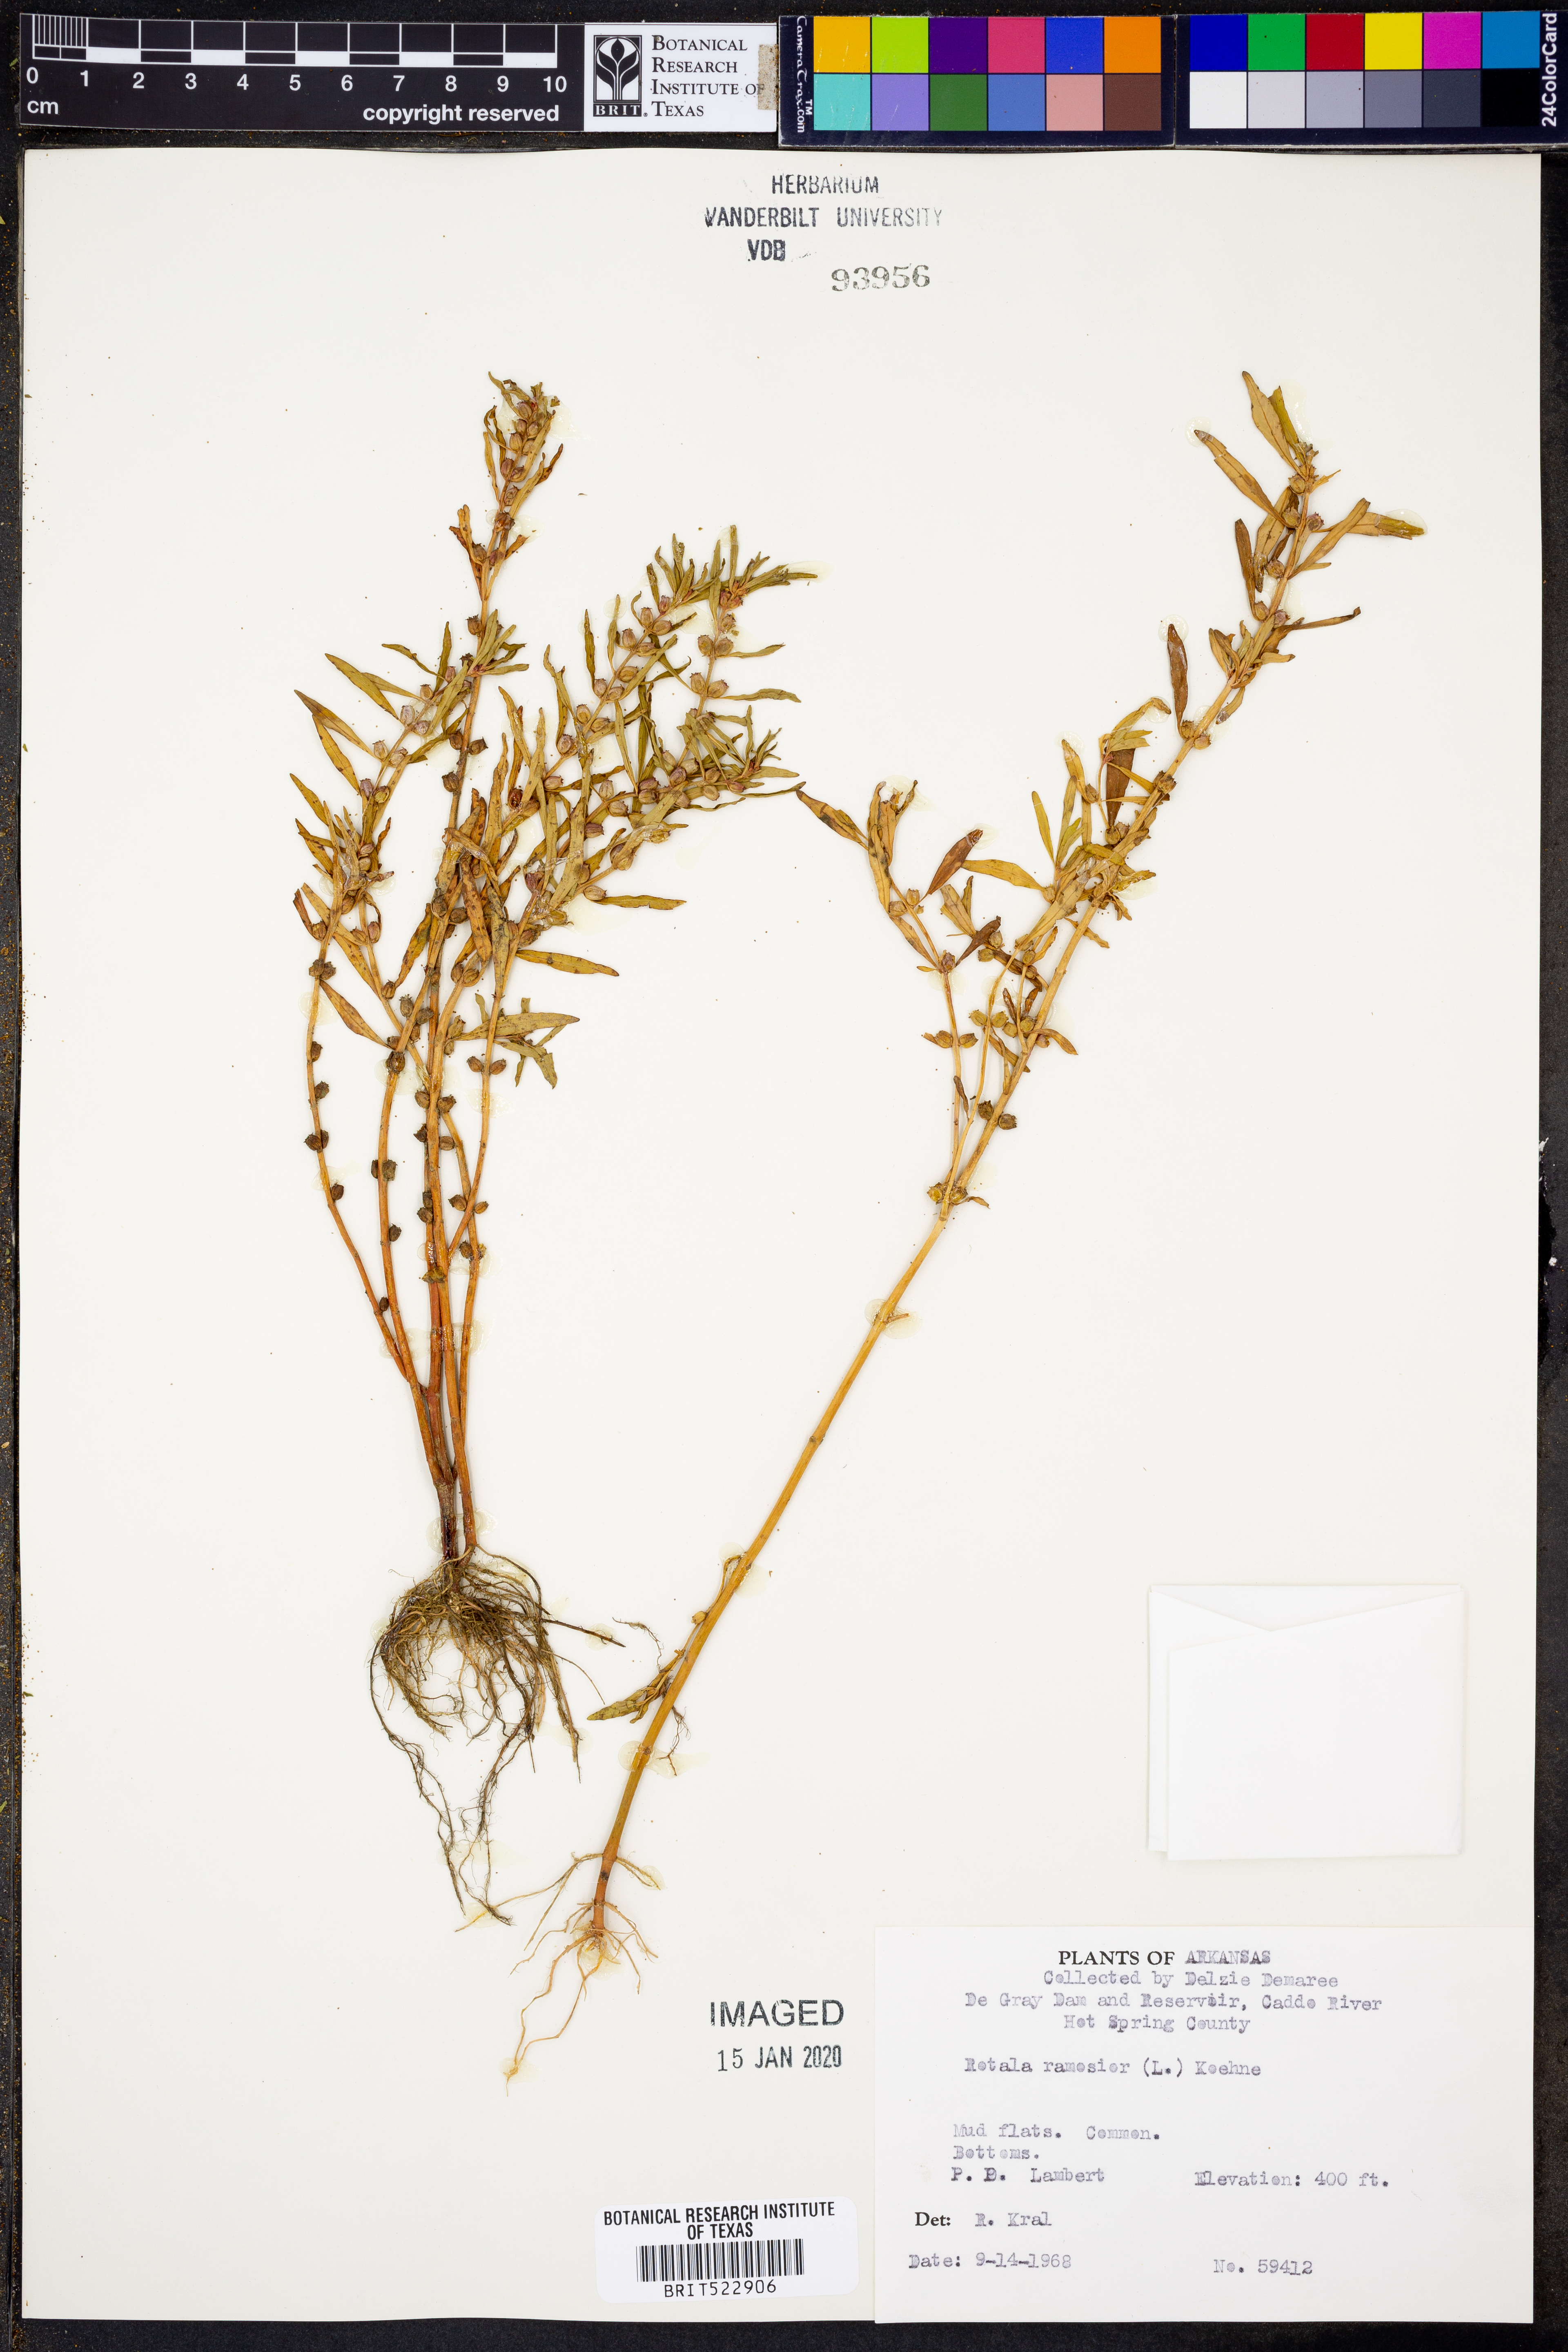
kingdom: Plantae
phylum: Tracheophyta
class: Magnoliopsida
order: Myrtales
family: Lythraceae
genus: Rotala
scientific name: Rotala ramosior
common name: Lowland rotala
